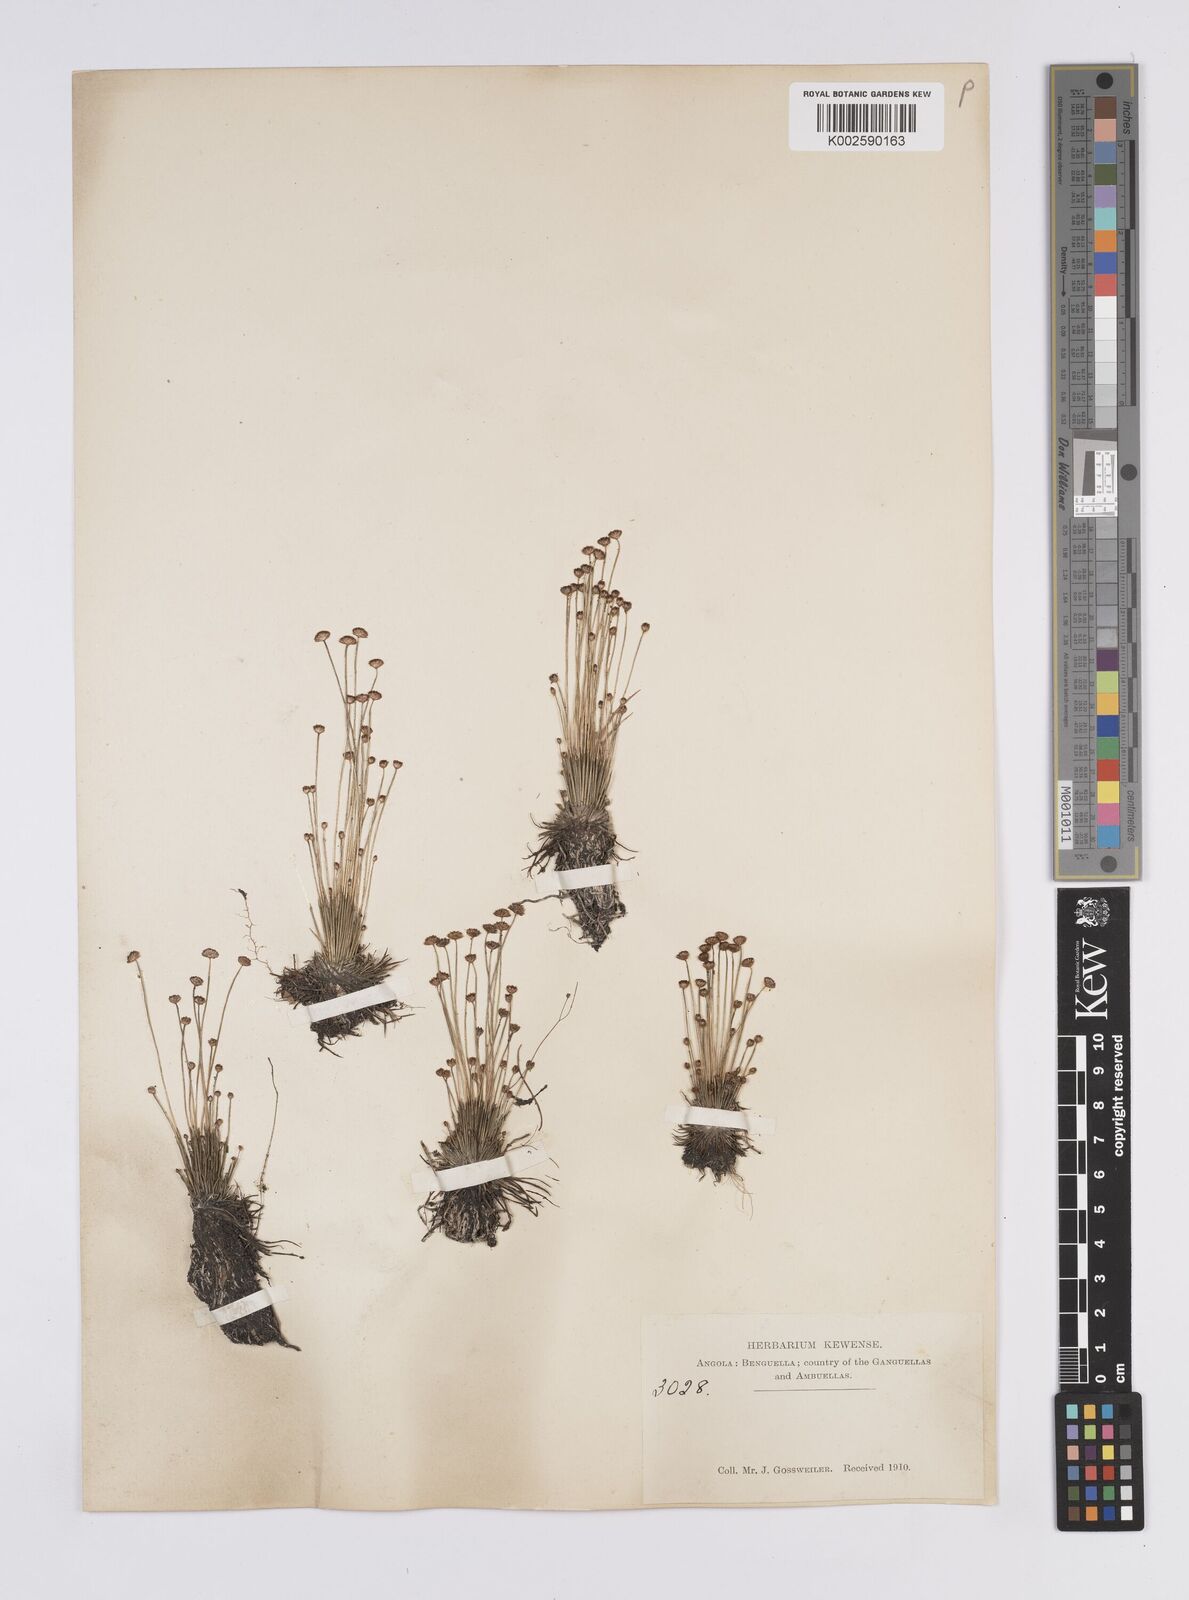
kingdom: Plantae
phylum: Tracheophyta
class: Liliopsida
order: Poales
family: Eriocaulaceae
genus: Syngonanthus
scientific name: Syngonanthus wahlbergii
